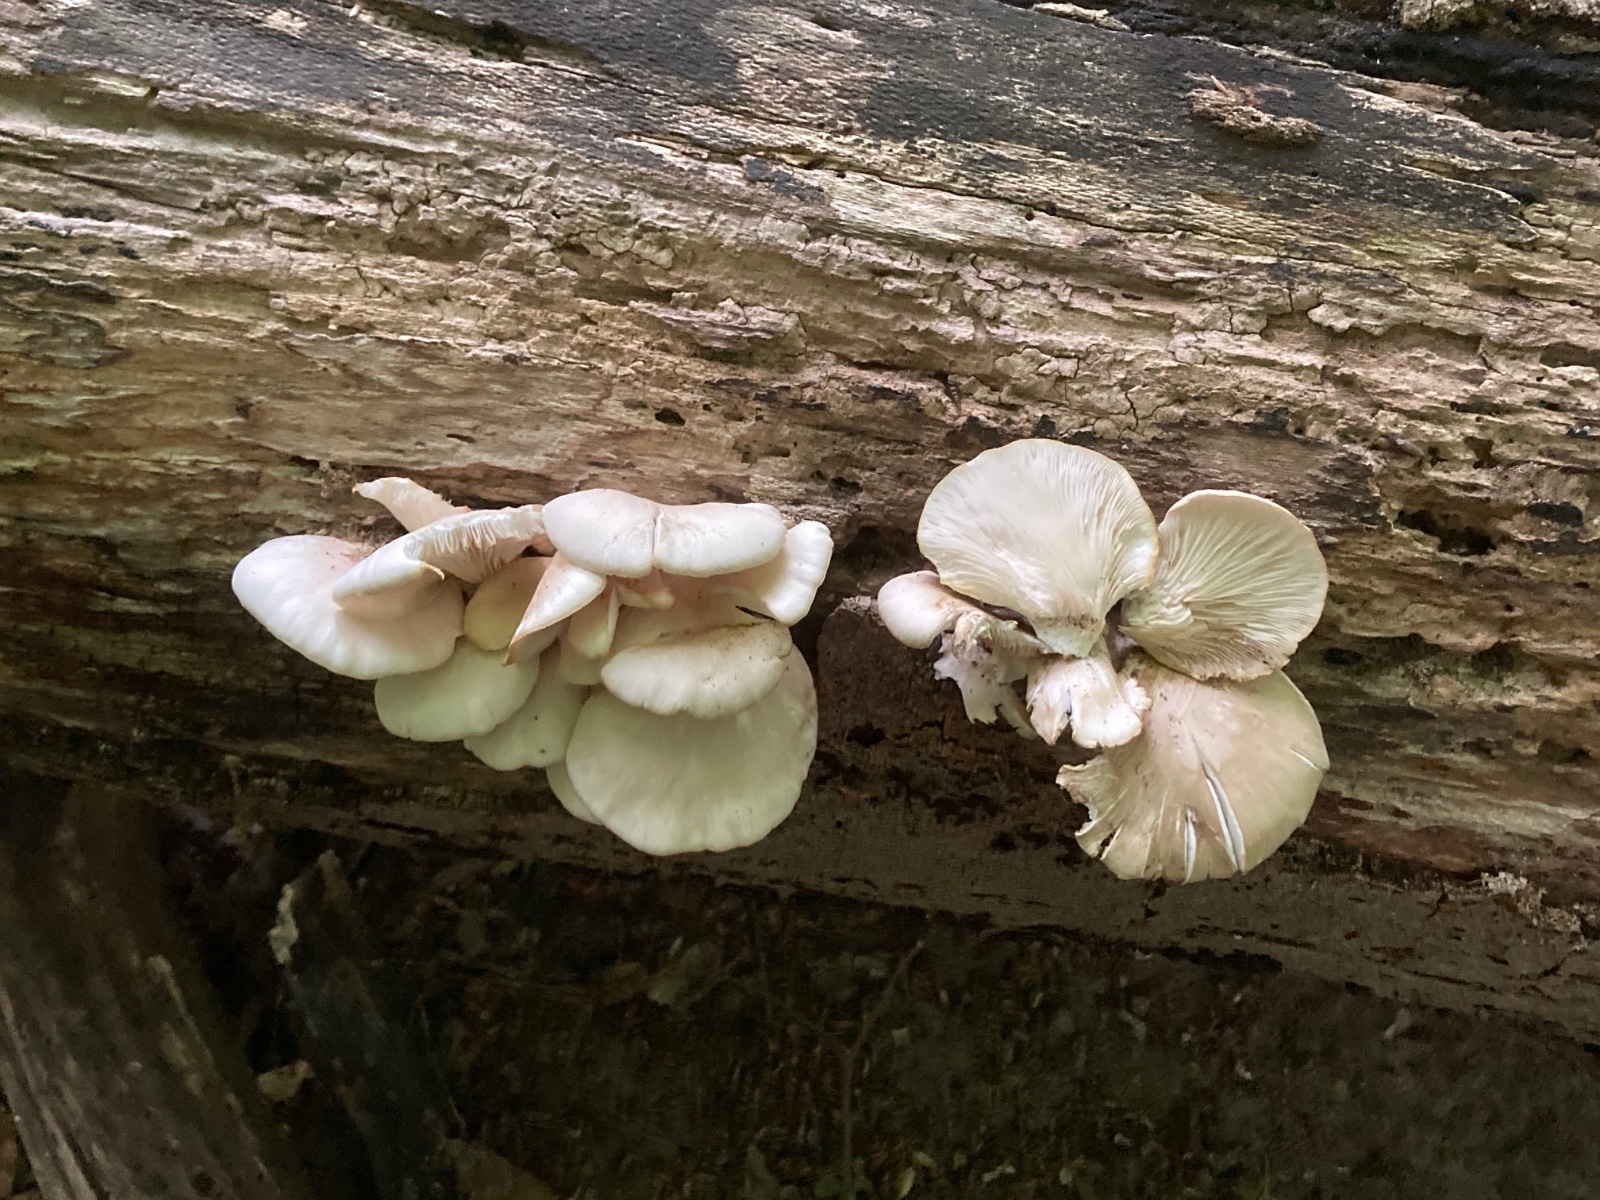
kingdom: Fungi
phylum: Basidiomycota
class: Agaricomycetes
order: Agaricales
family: Pleurotaceae
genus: Pleurotus
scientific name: Pleurotus pulmonarius
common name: sommer-østershat
